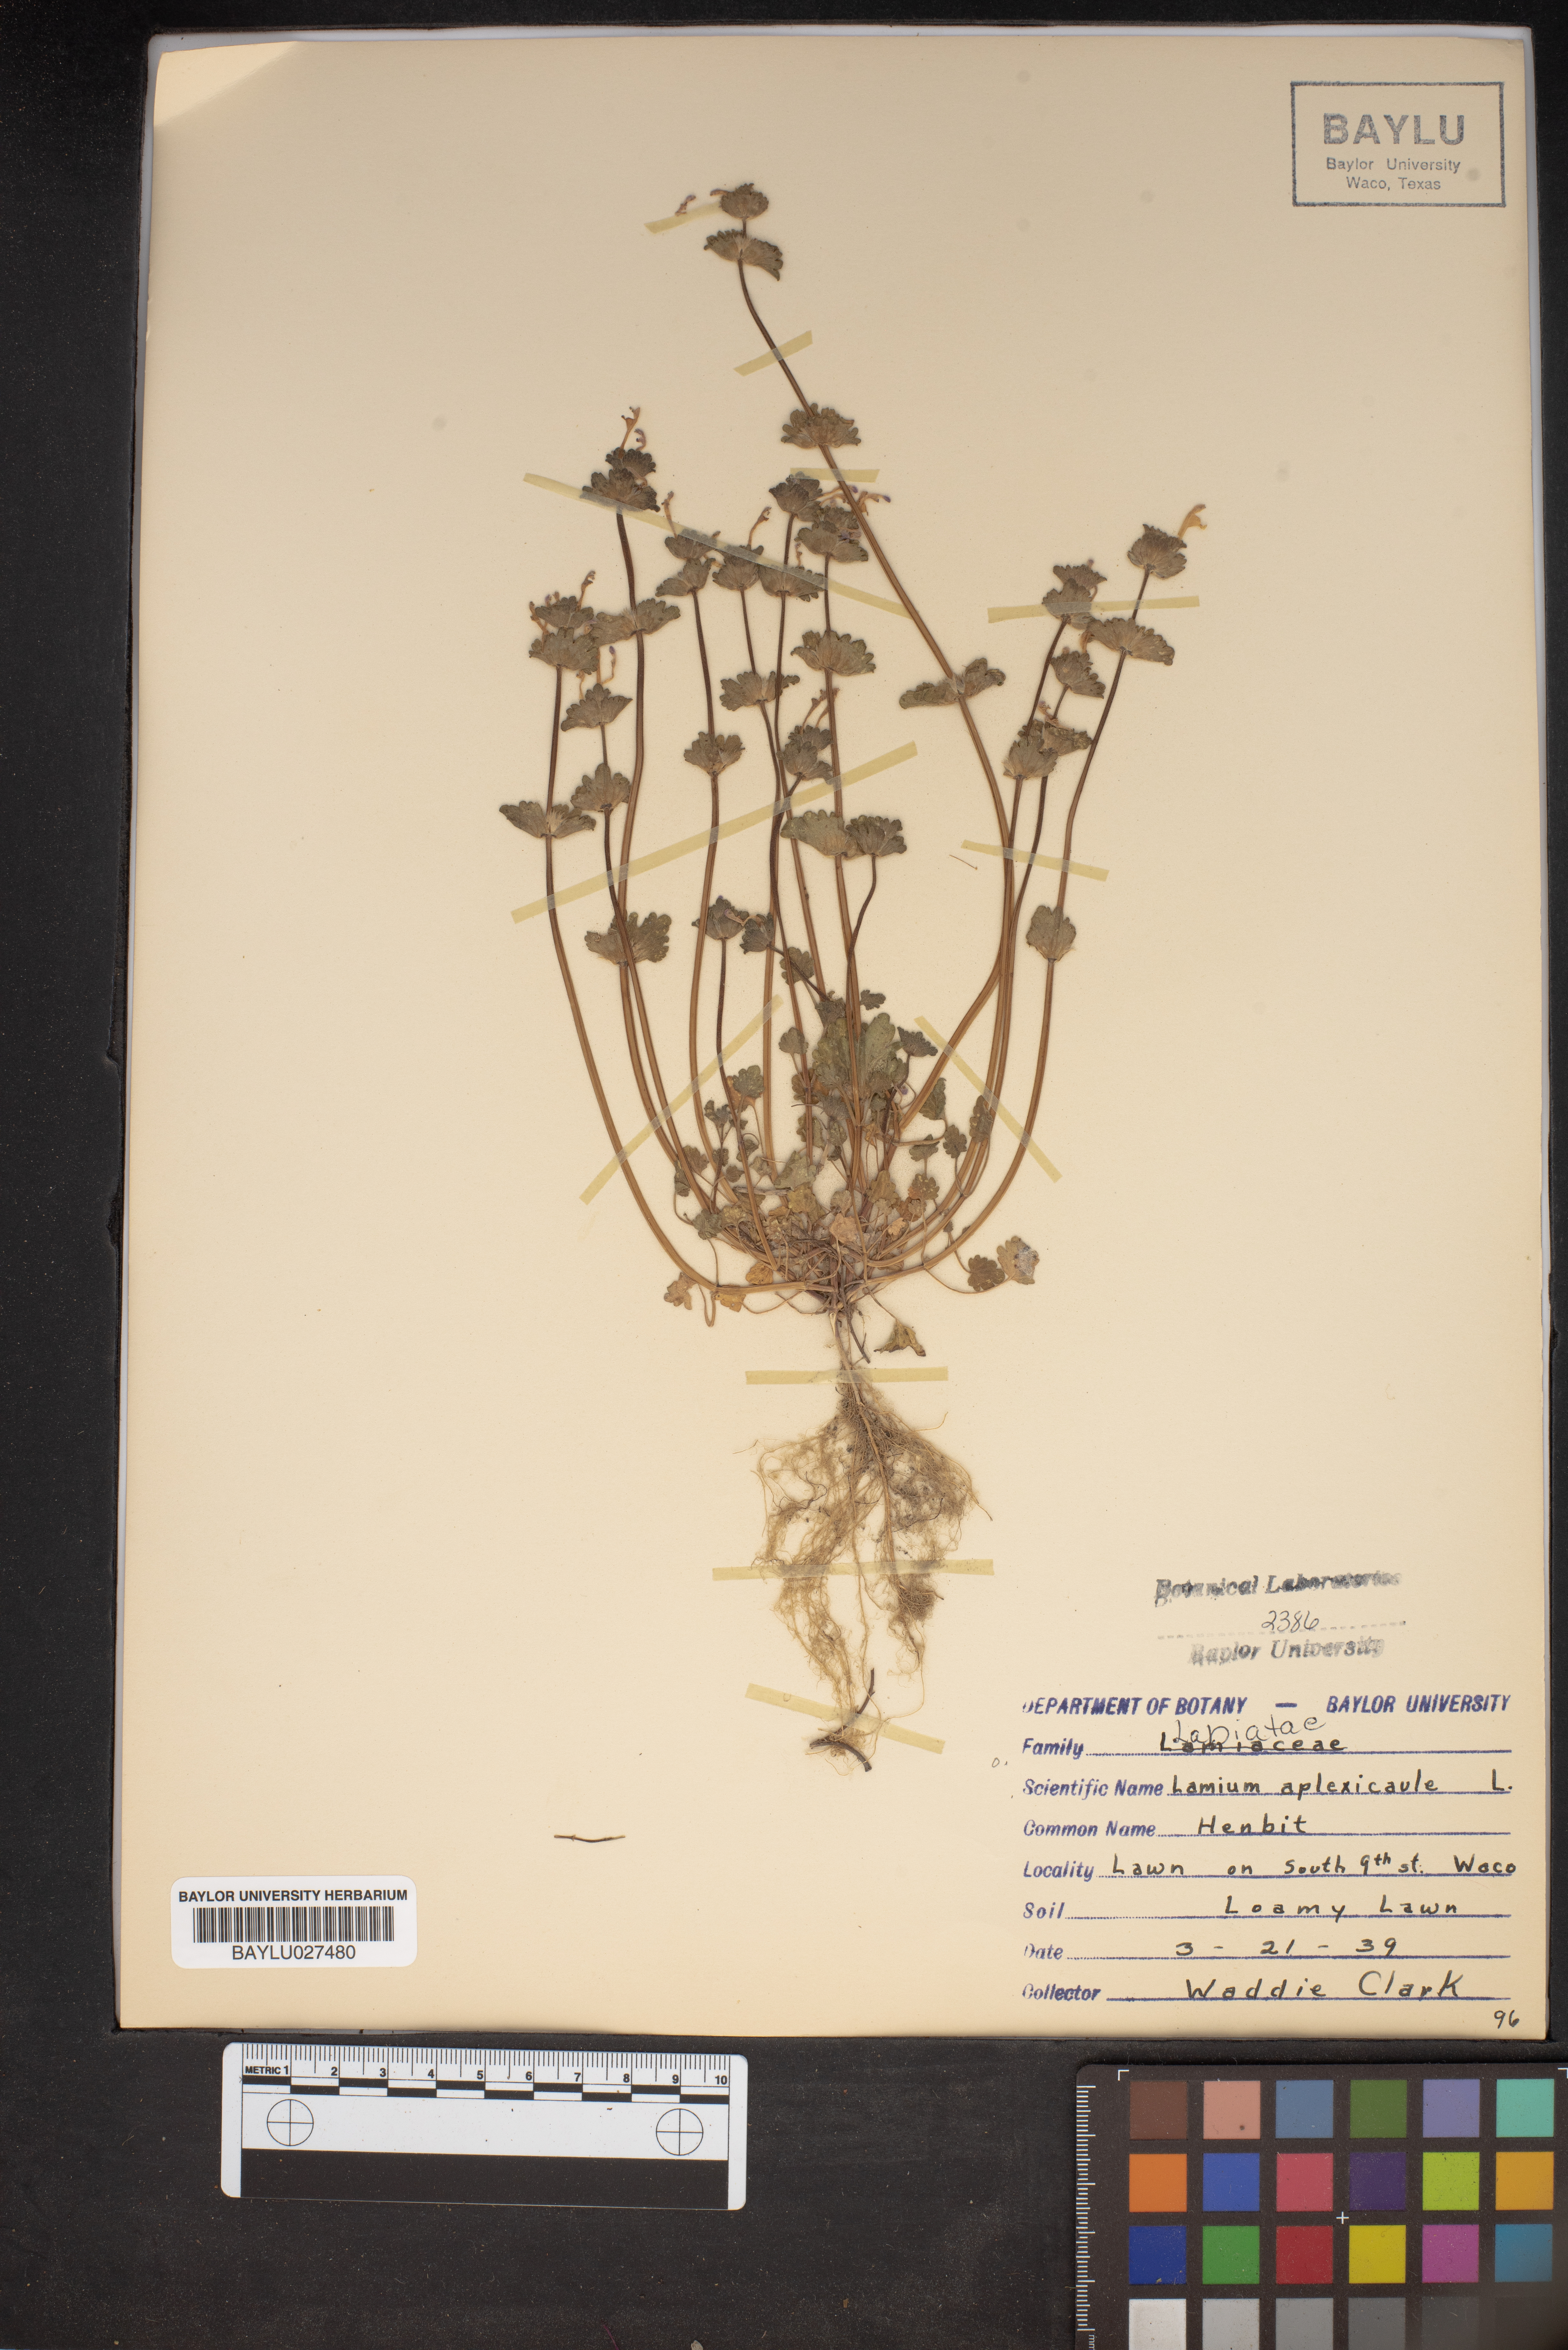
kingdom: Plantae
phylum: Tracheophyta
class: Magnoliopsida
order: Lamiales
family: Lamiaceae
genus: Lamium
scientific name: Lamium amplexicaule
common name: Henbit dead-nettle
